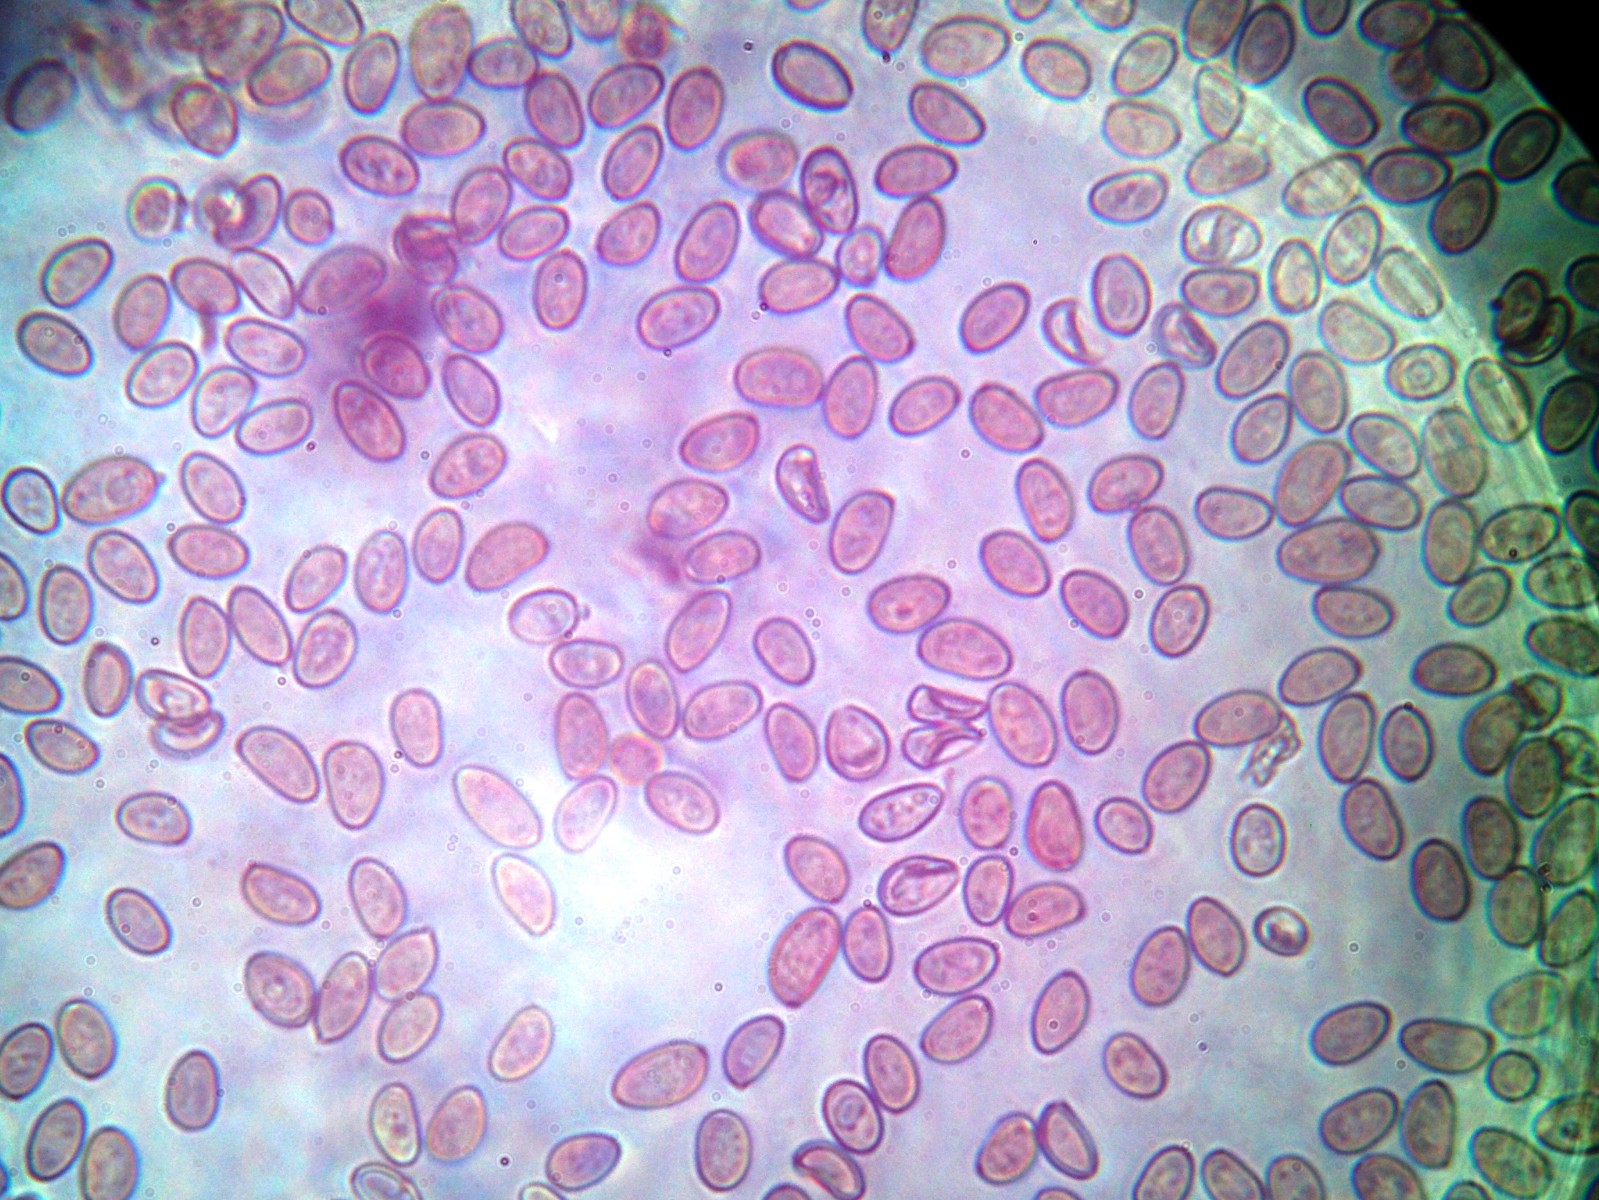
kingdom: Fungi
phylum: Basidiomycota
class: Agaricomycetes
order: Agaricales
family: Hymenogastraceae
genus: Psilocybe
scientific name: Psilocybe coronilla
